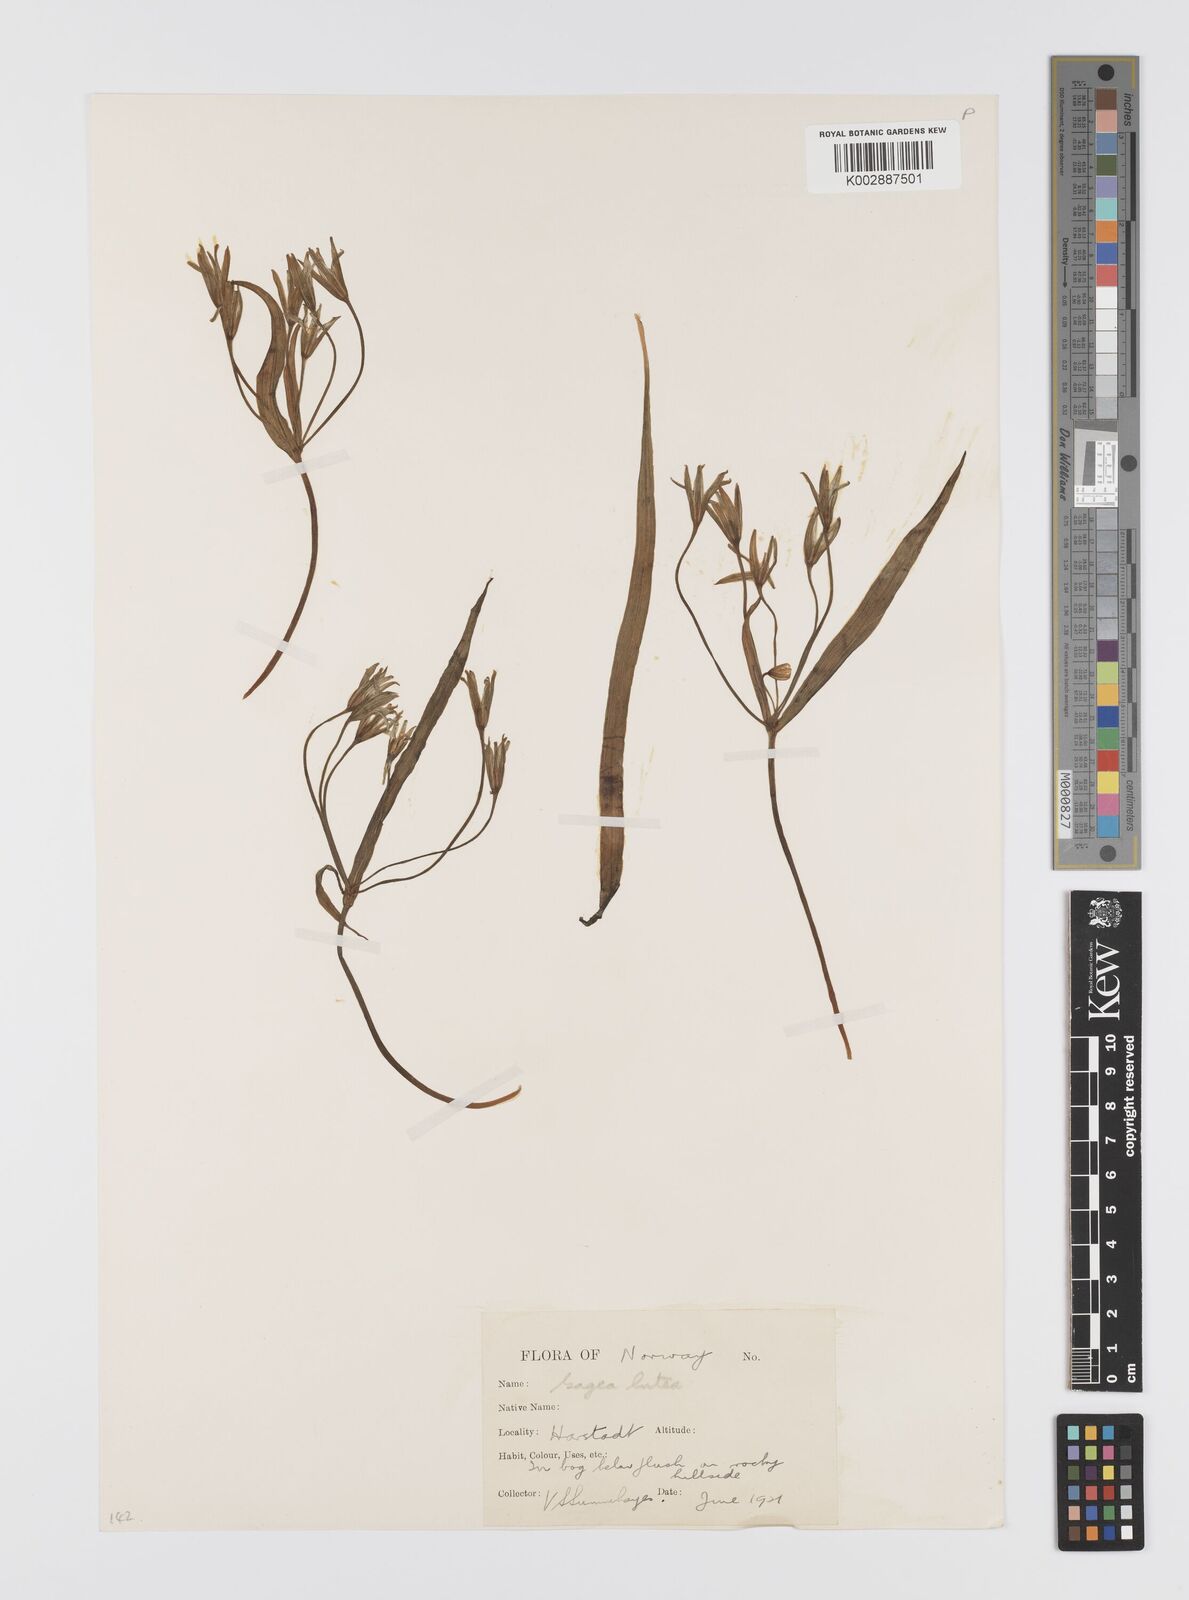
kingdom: Plantae
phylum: Tracheophyta
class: Liliopsida
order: Liliales
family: Liliaceae
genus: Gagea
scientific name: Gagea lutea
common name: Yellow star-of-bethlehem
